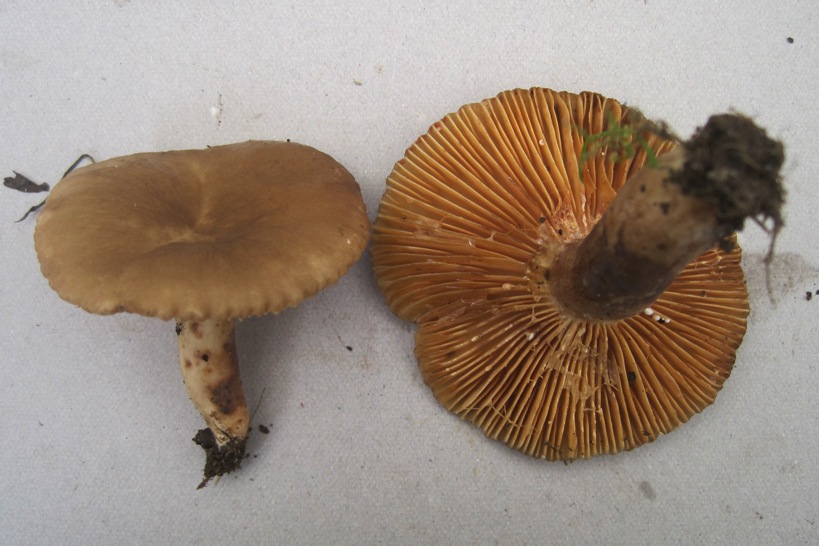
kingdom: Fungi
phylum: Basidiomycota
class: Agaricomycetes
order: Russulales
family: Russulaceae
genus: Lactarius
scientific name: Lactarius ruginosus
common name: gråbrun mælkehat
